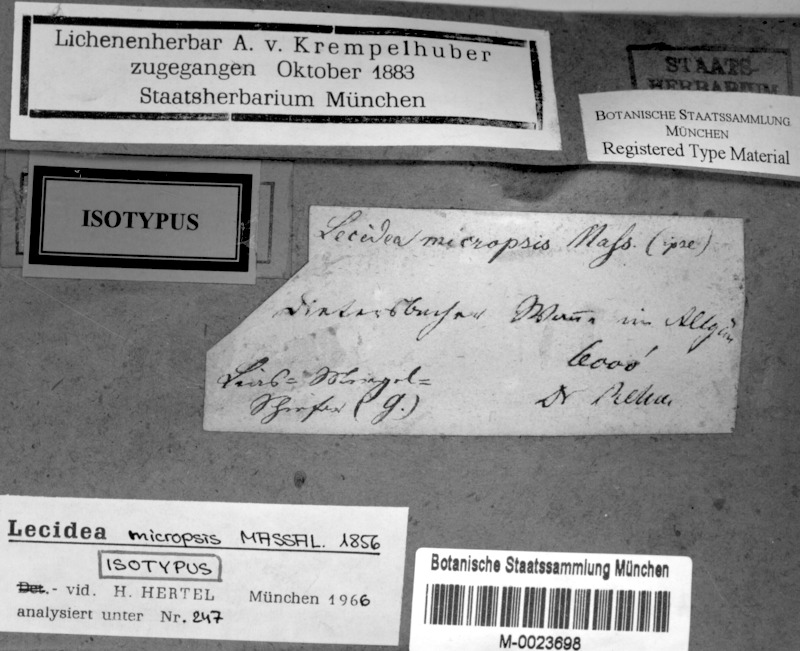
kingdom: Fungi
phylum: Ascomycota
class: Lecanoromycetes
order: Lecideales
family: Lecideaceae
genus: Farnoldia
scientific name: Farnoldia micropsis
